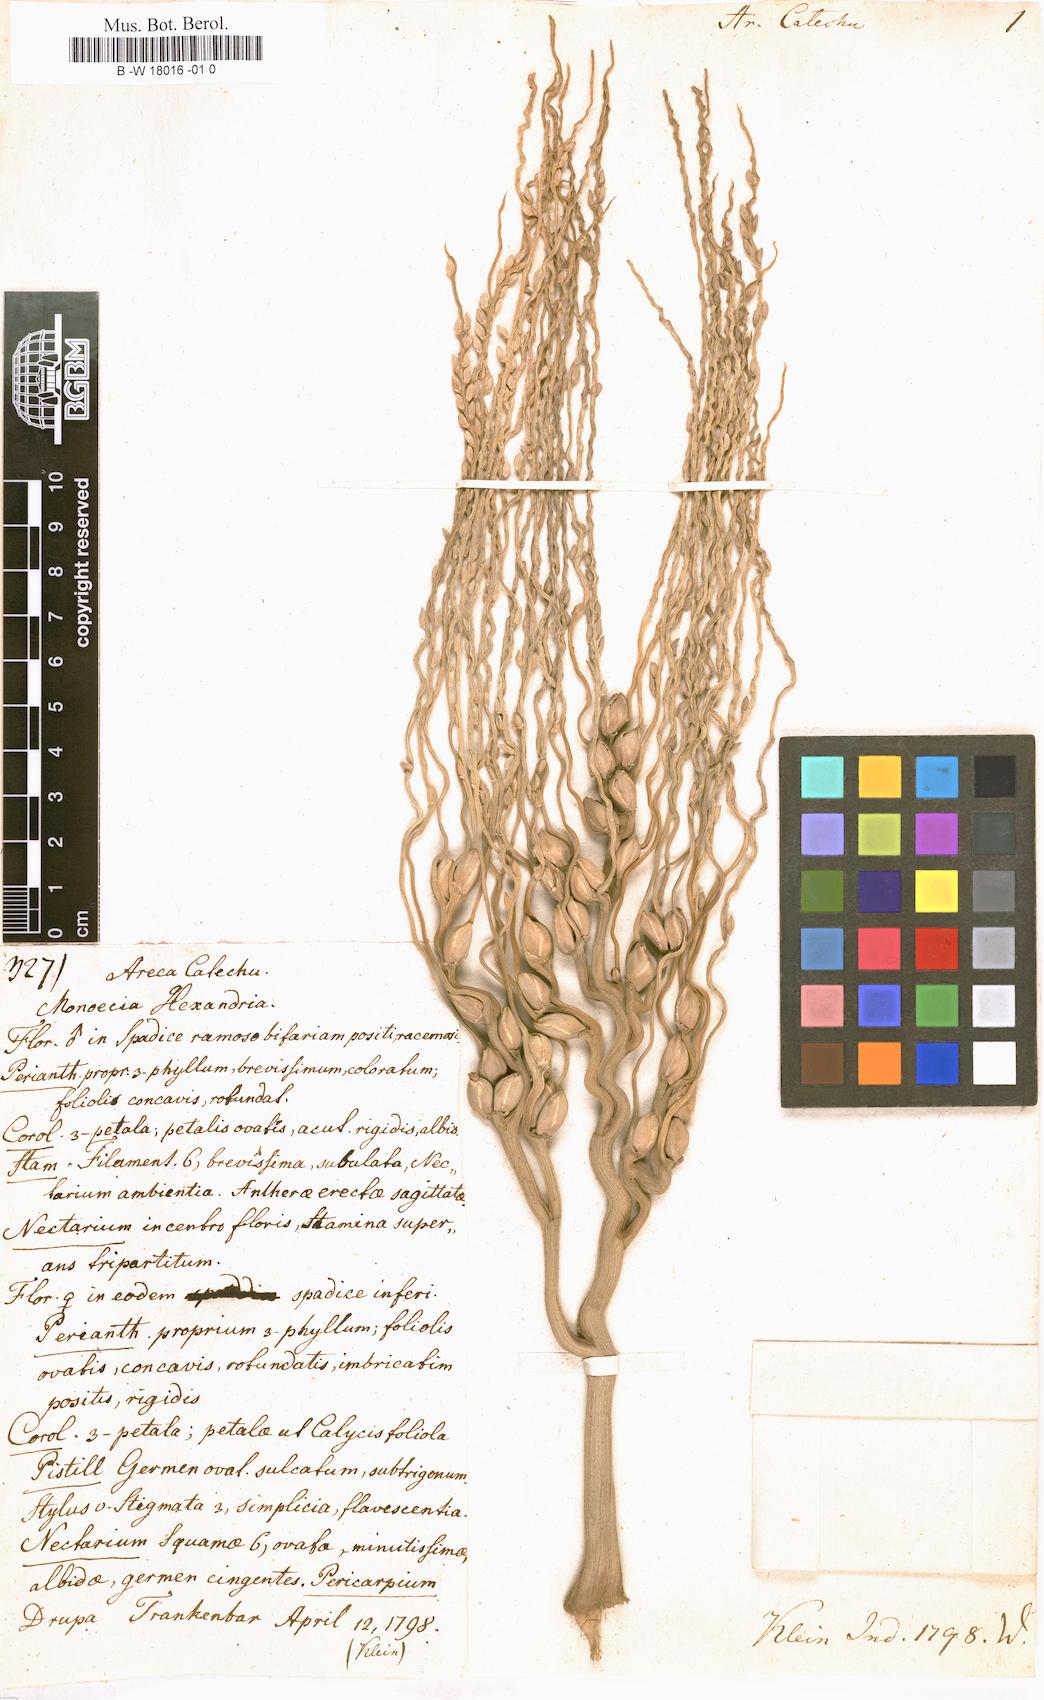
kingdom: Plantae
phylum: Tracheophyta
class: Liliopsida
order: Arecales
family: Arecaceae
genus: Areca
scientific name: Areca catechu
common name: Indian-nut
